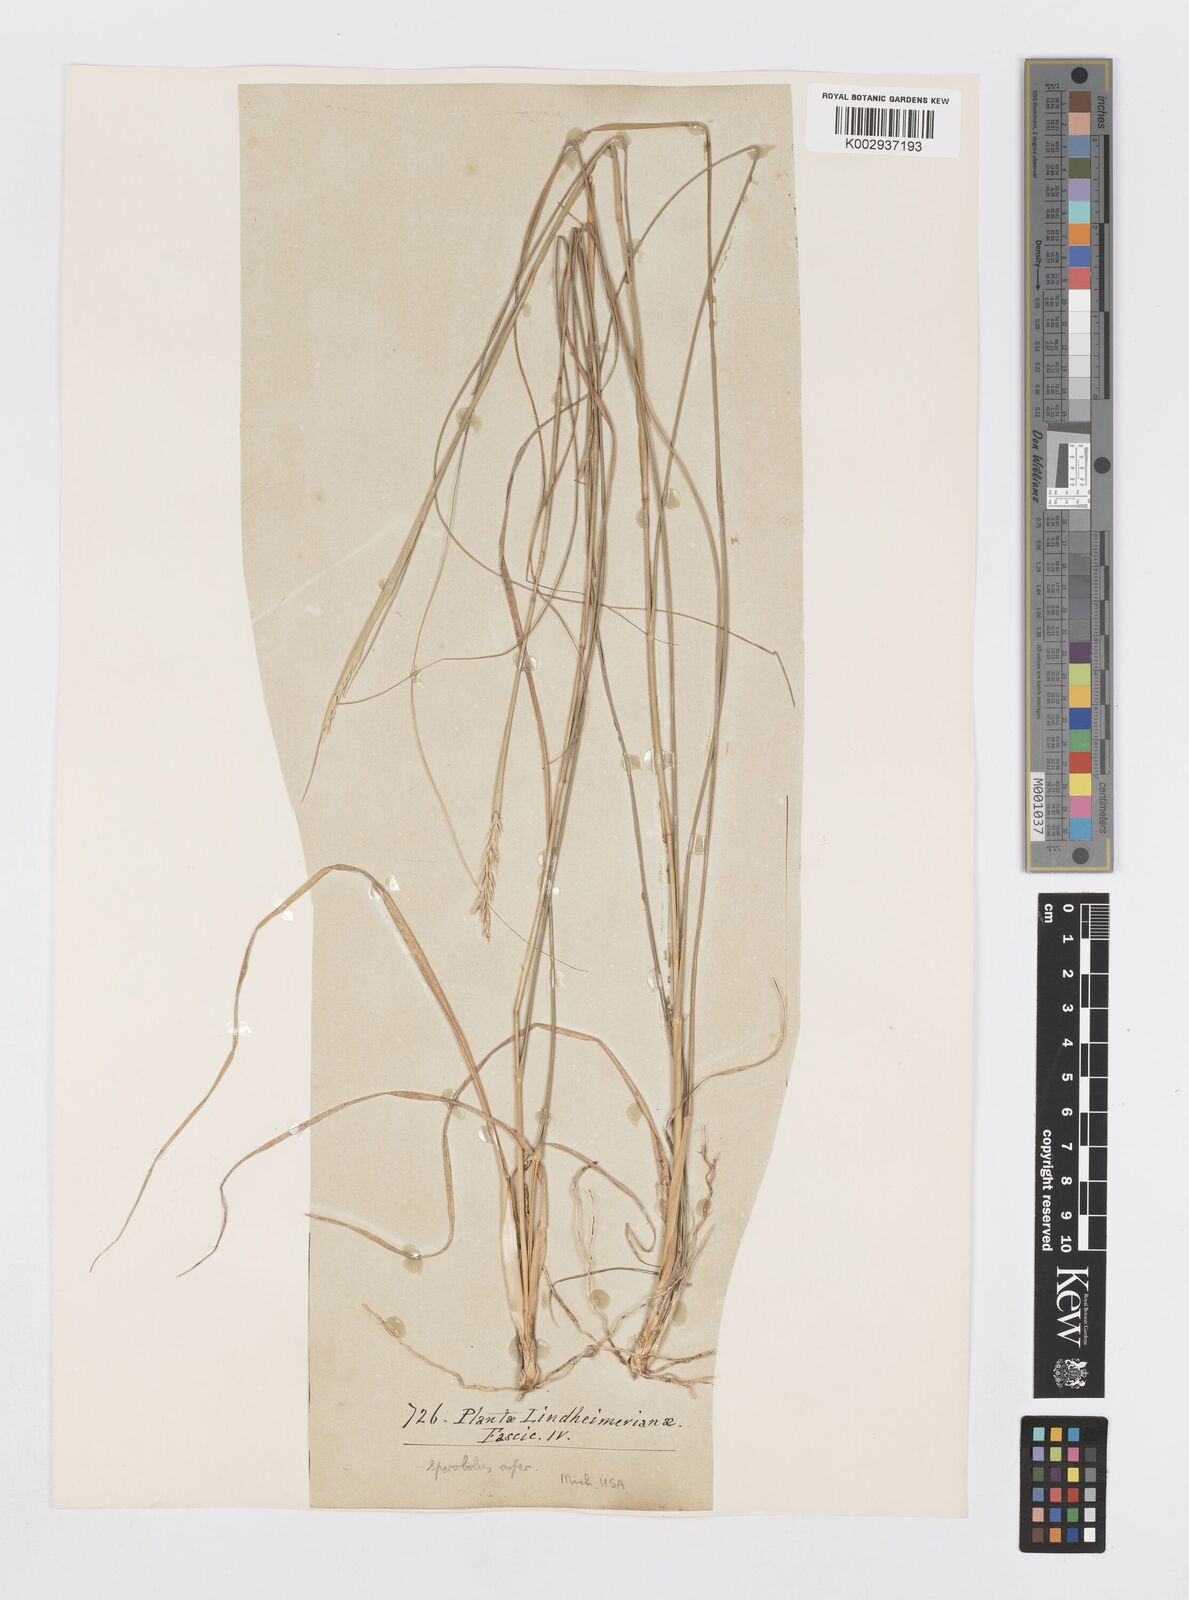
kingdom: Plantae
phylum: Tracheophyta
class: Liliopsida
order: Poales
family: Poaceae
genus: Sporobolus
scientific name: Sporobolus compositus
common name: Rough dropseed
